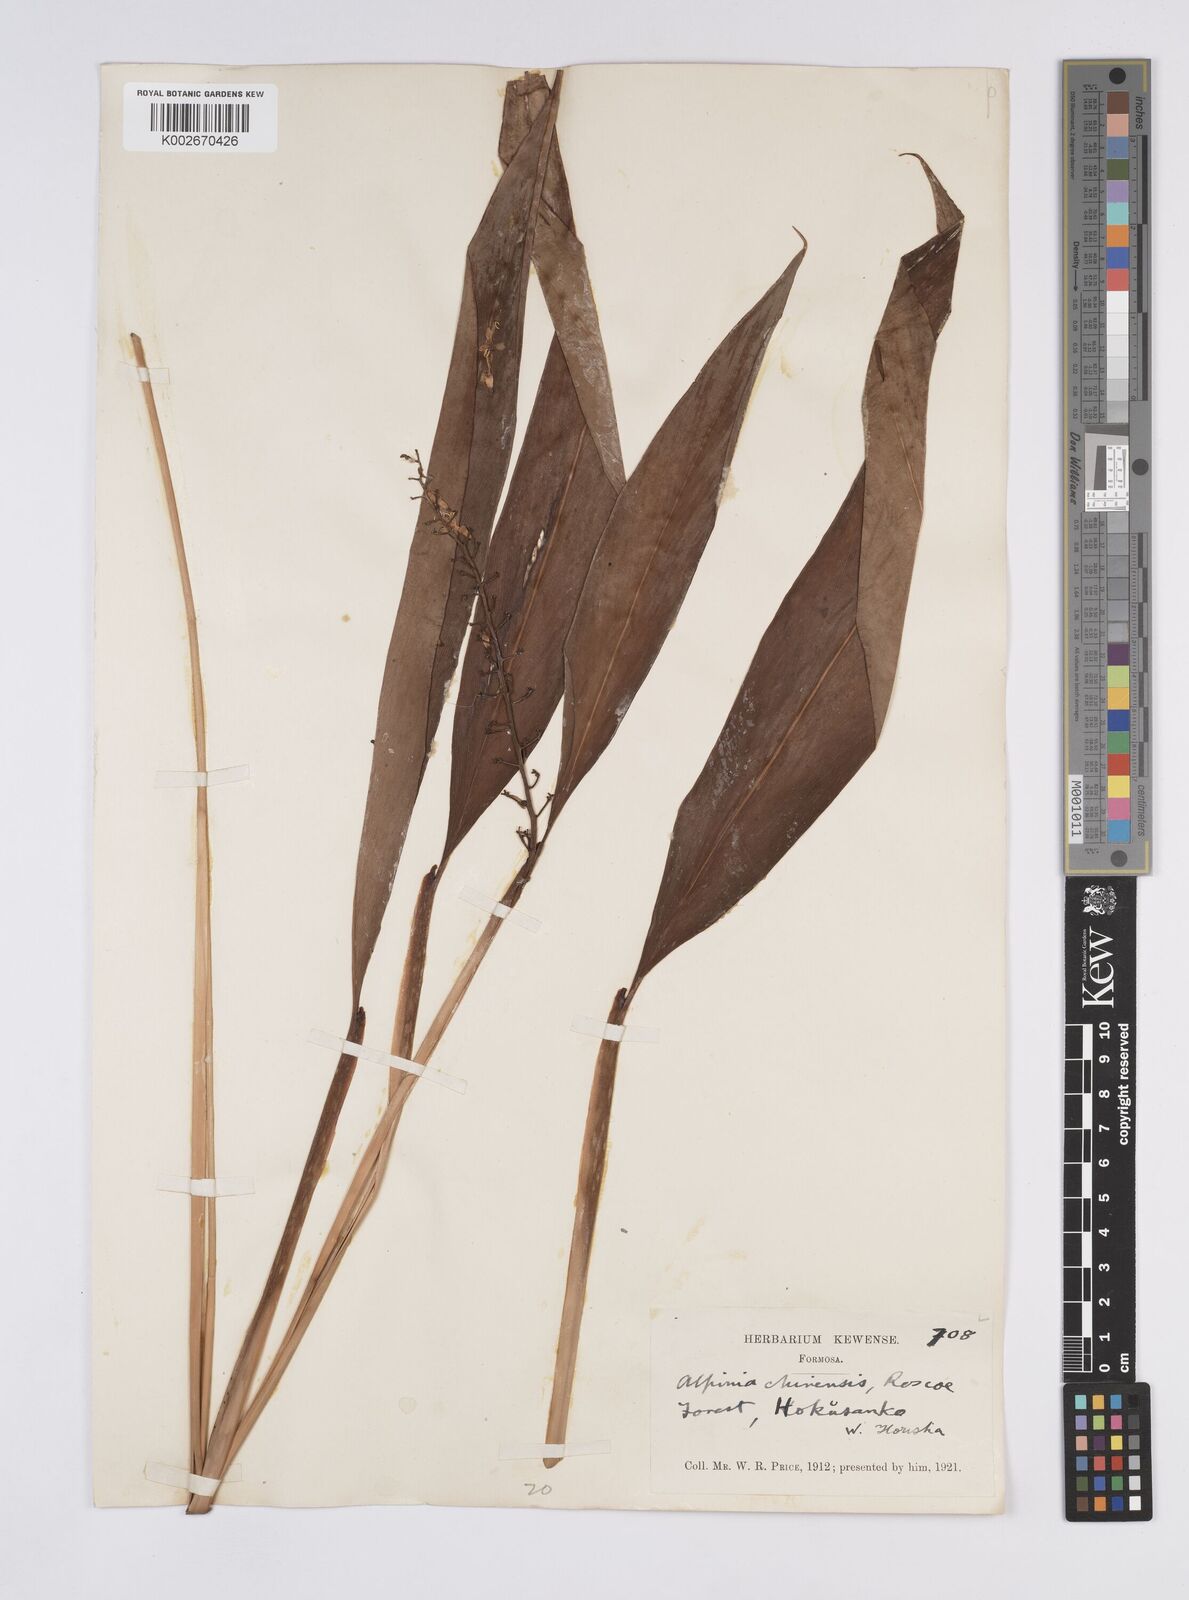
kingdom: Plantae
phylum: Tracheophyta
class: Liliopsida
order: Zingiberales
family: Zingiberaceae
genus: Alpinia
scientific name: Alpinia chinensis
